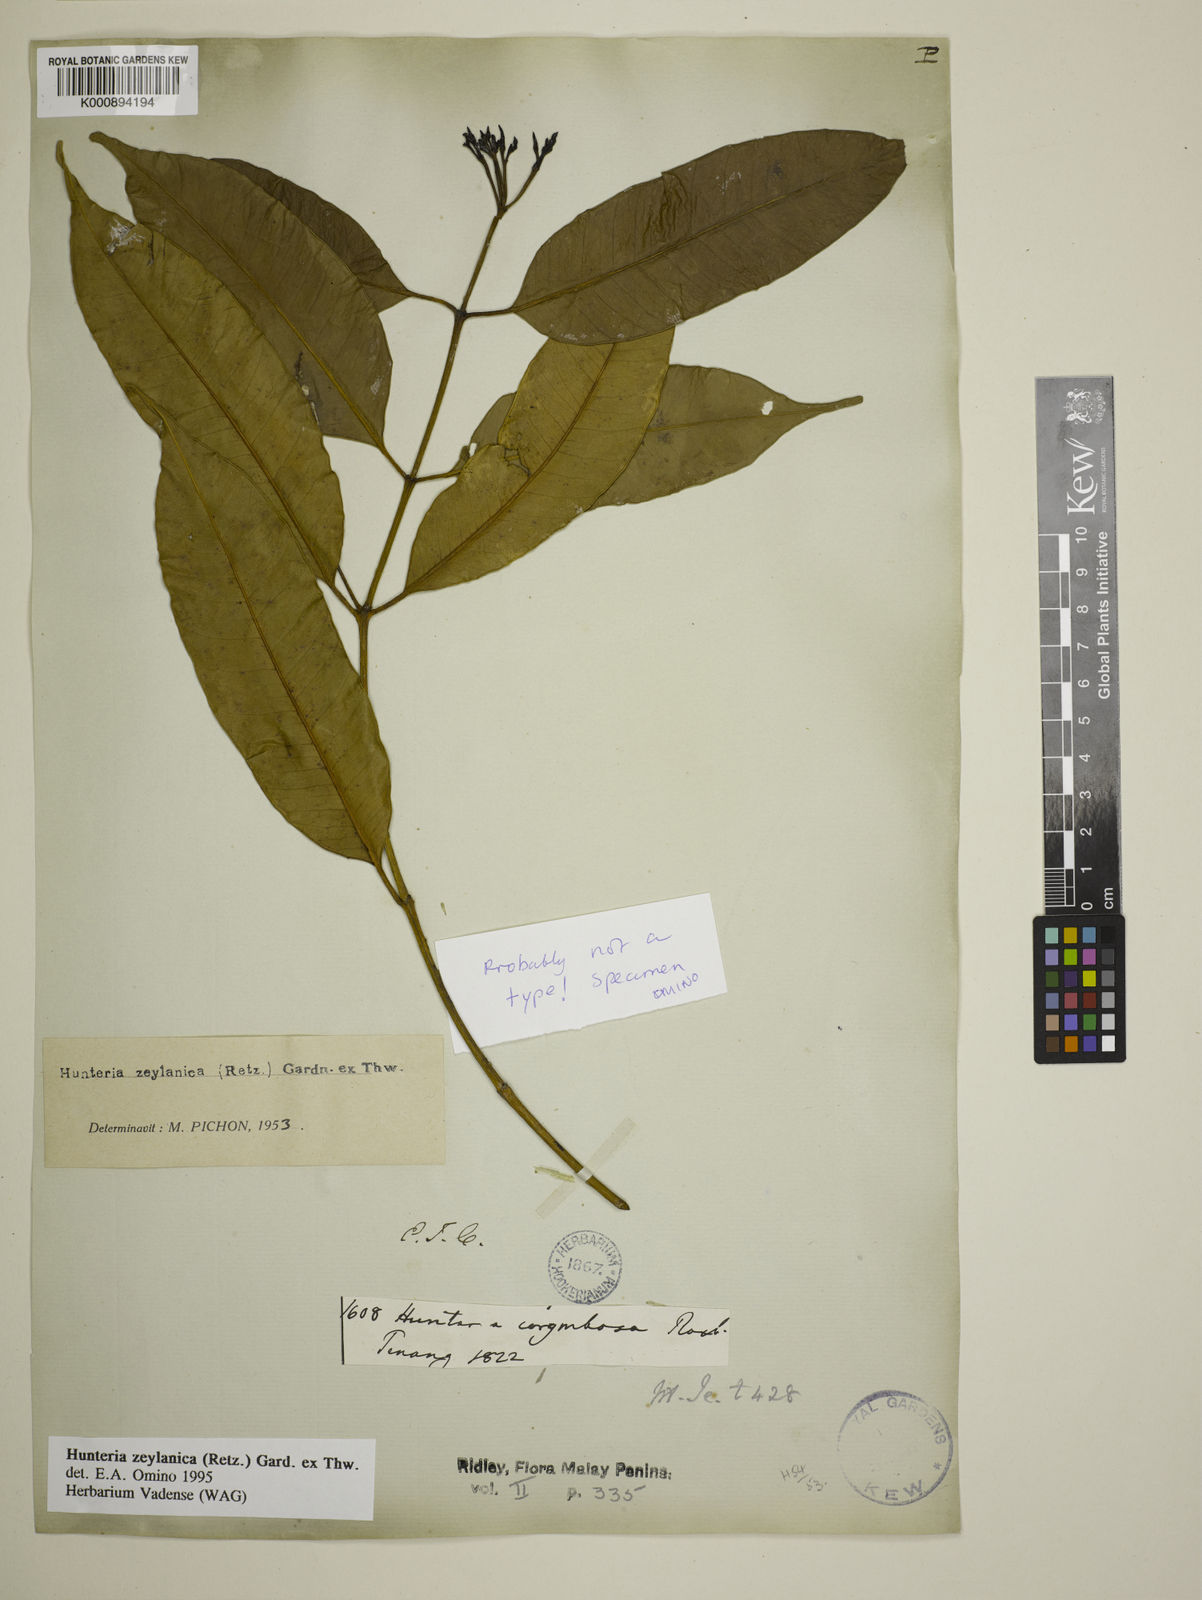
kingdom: Plantae
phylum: Tracheophyta
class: Magnoliopsida
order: Gentianales
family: Apocynaceae
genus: Hunteria
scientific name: Hunteria zeylanica
